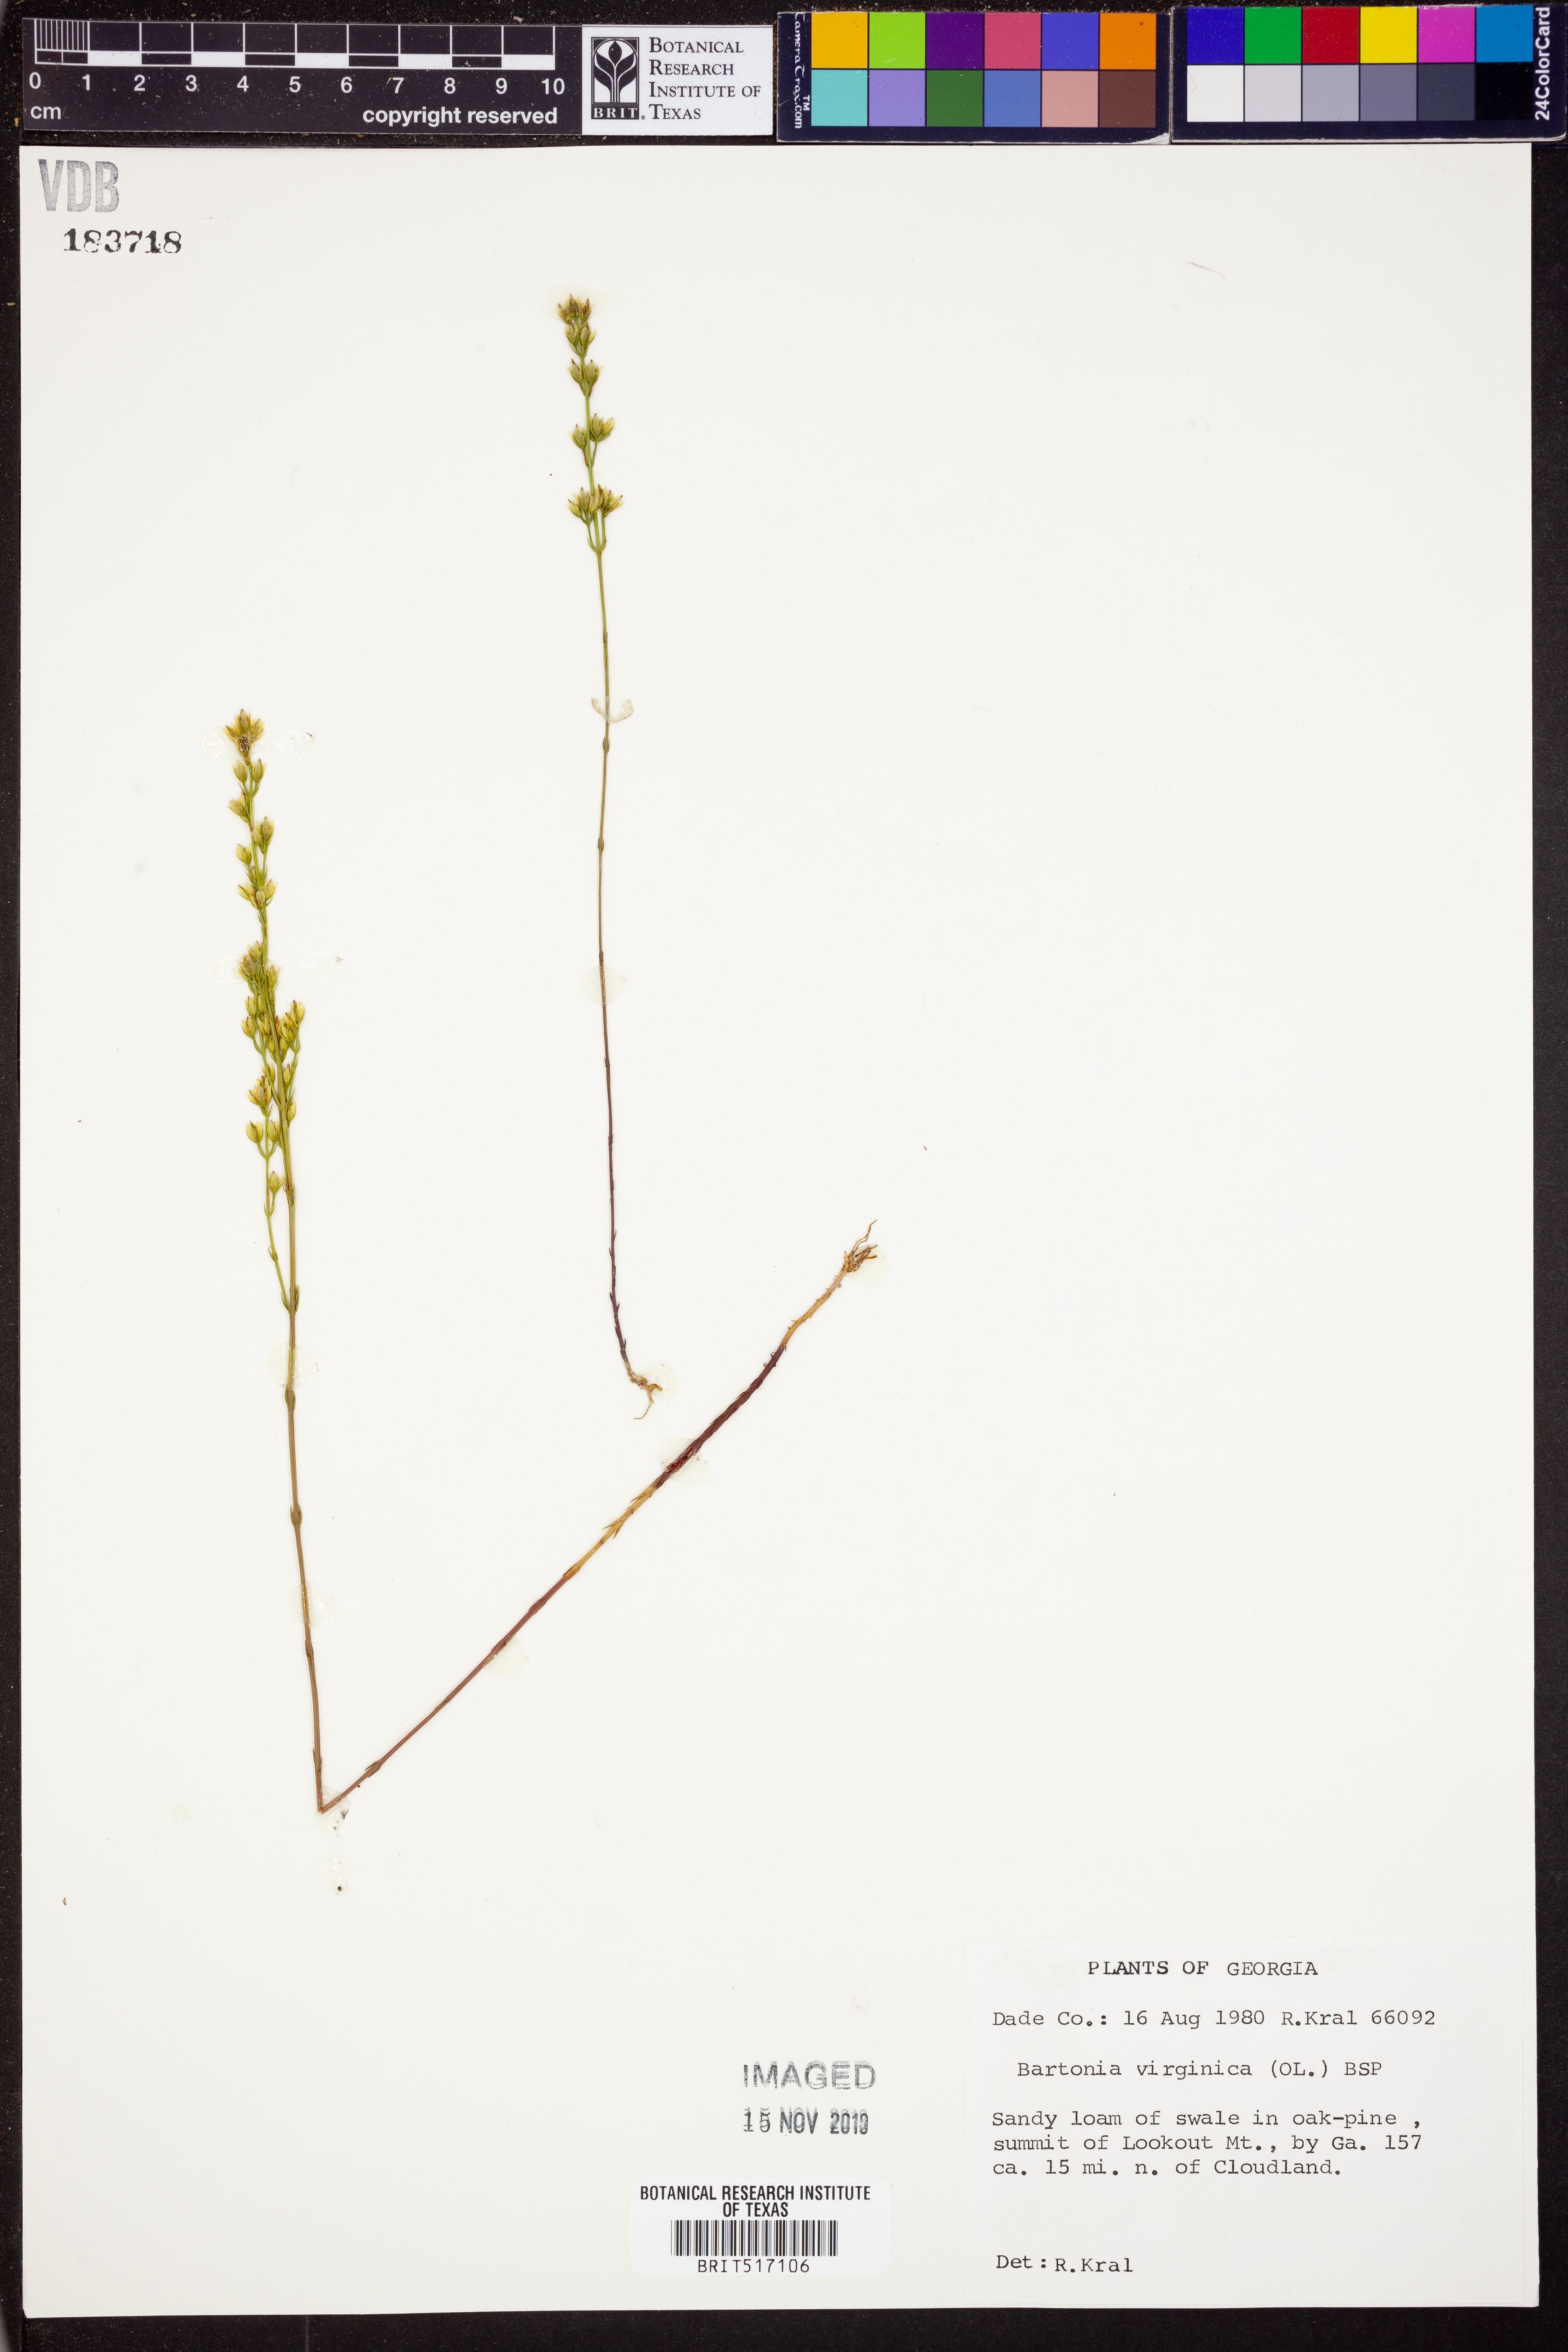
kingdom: Plantae
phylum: Tracheophyta
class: Magnoliopsida
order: Gentianales
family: Gentianaceae
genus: Bartonia
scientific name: Bartonia virginica
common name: Yellow bartonia
